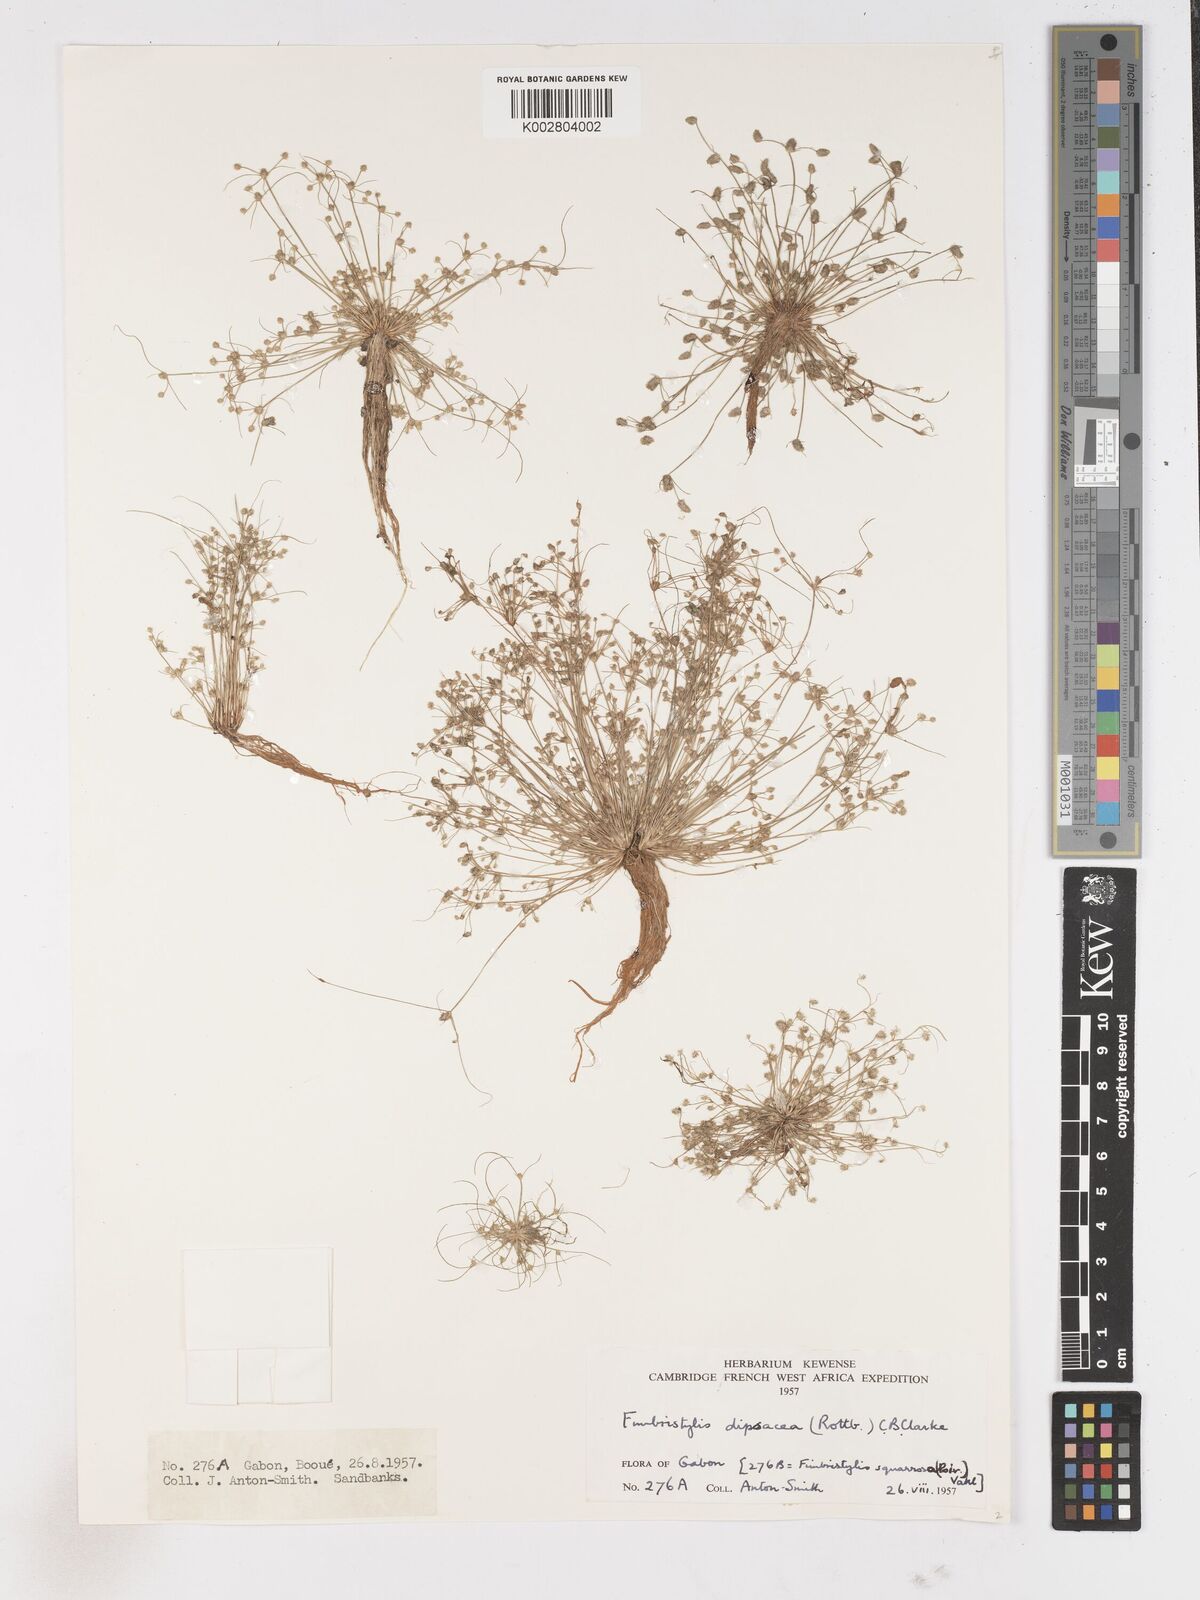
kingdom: Plantae
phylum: Tracheophyta
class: Liliopsida
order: Poales
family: Cyperaceae
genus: Fimbristylis
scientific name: Fimbristylis dipsacea
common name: Harper's fimbristylis
